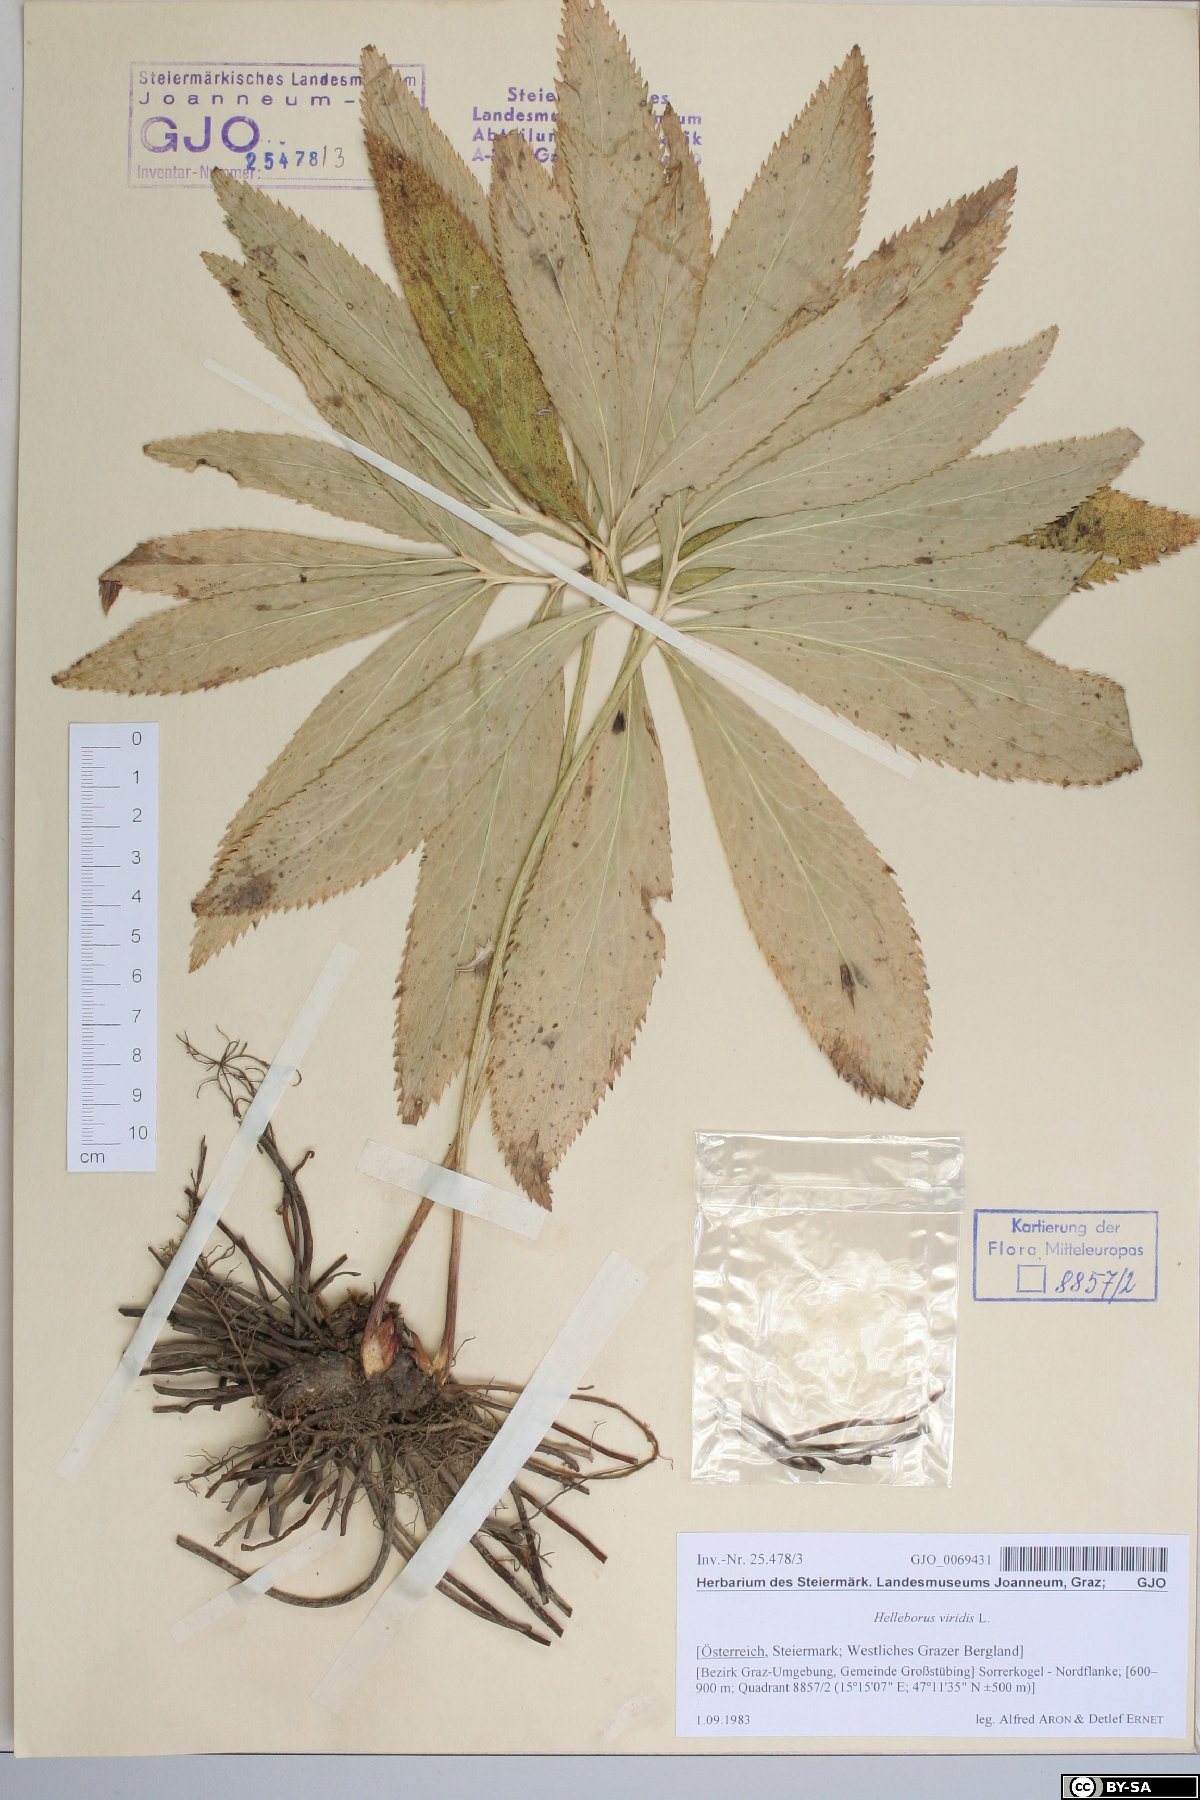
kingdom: Plantae
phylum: Tracheophyta
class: Magnoliopsida
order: Ranunculales
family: Ranunculaceae
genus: Helleborus
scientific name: Helleborus dumetorum
